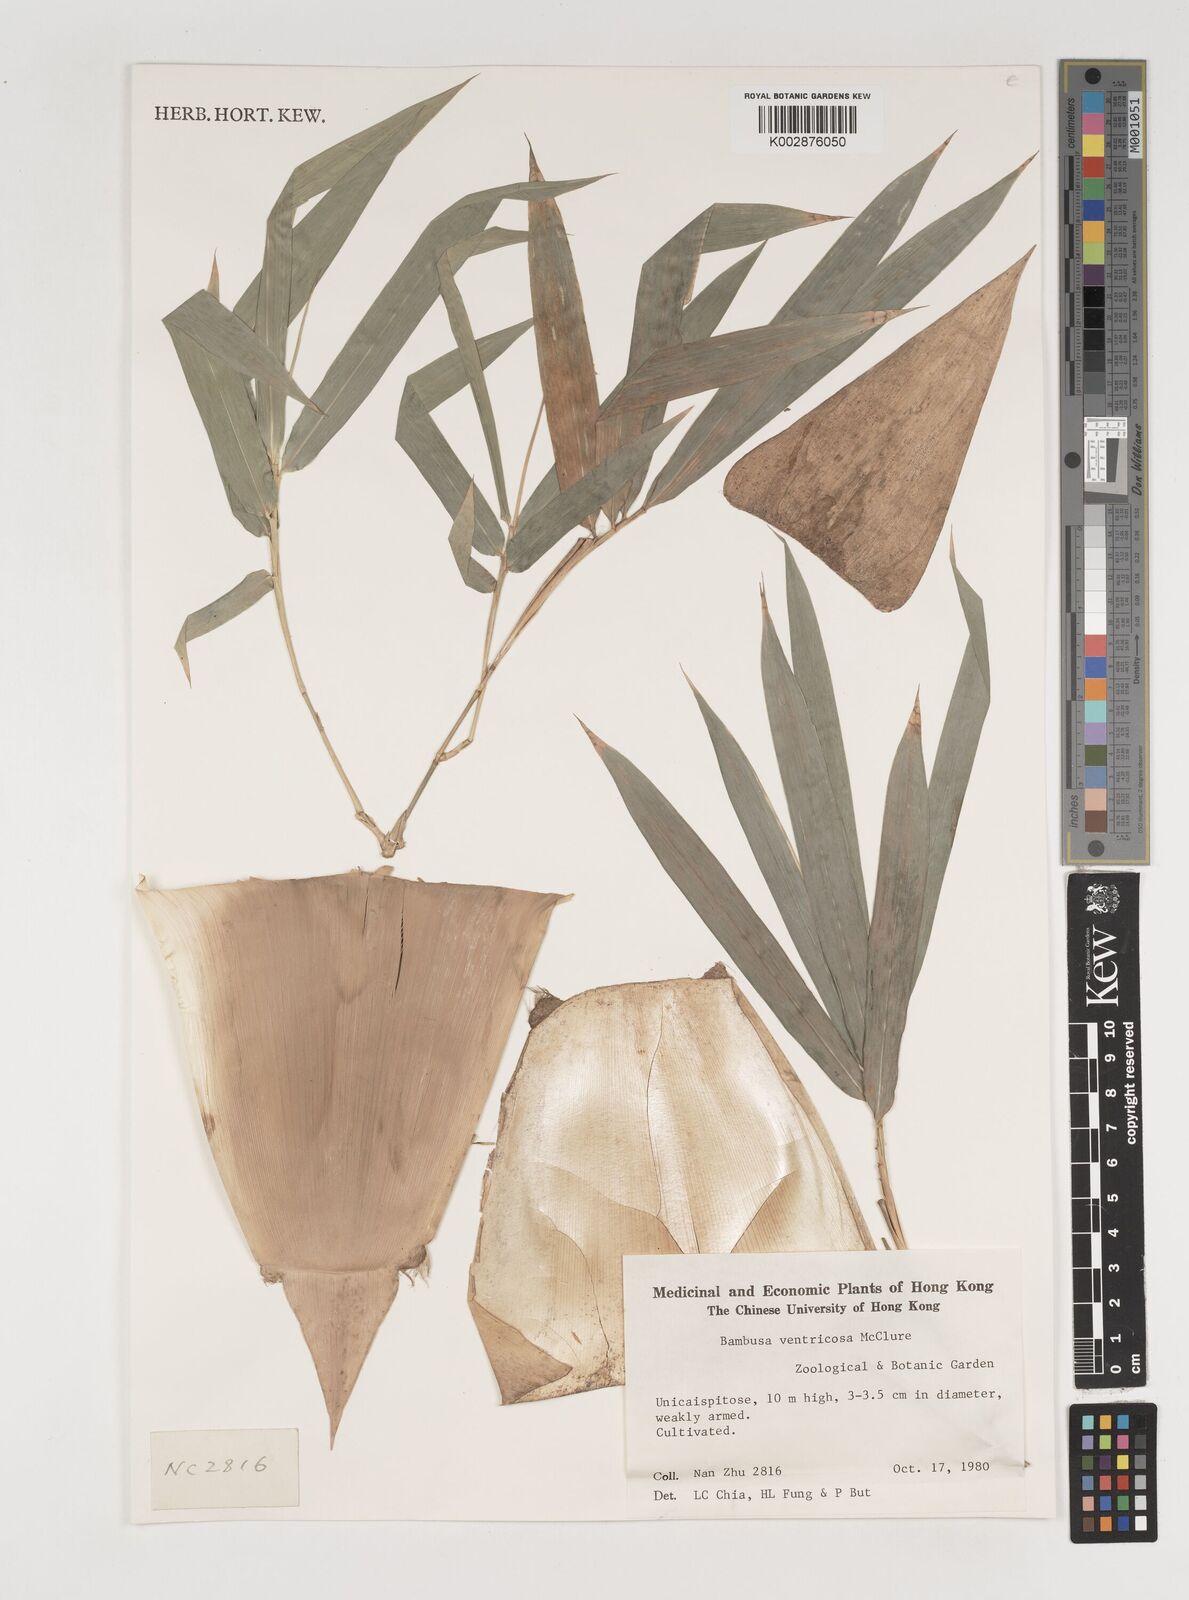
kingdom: Plantae
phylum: Tracheophyta
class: Liliopsida
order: Poales
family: Poaceae
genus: Bambusa
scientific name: Bambusa ventricosa
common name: Buddha bamboo
